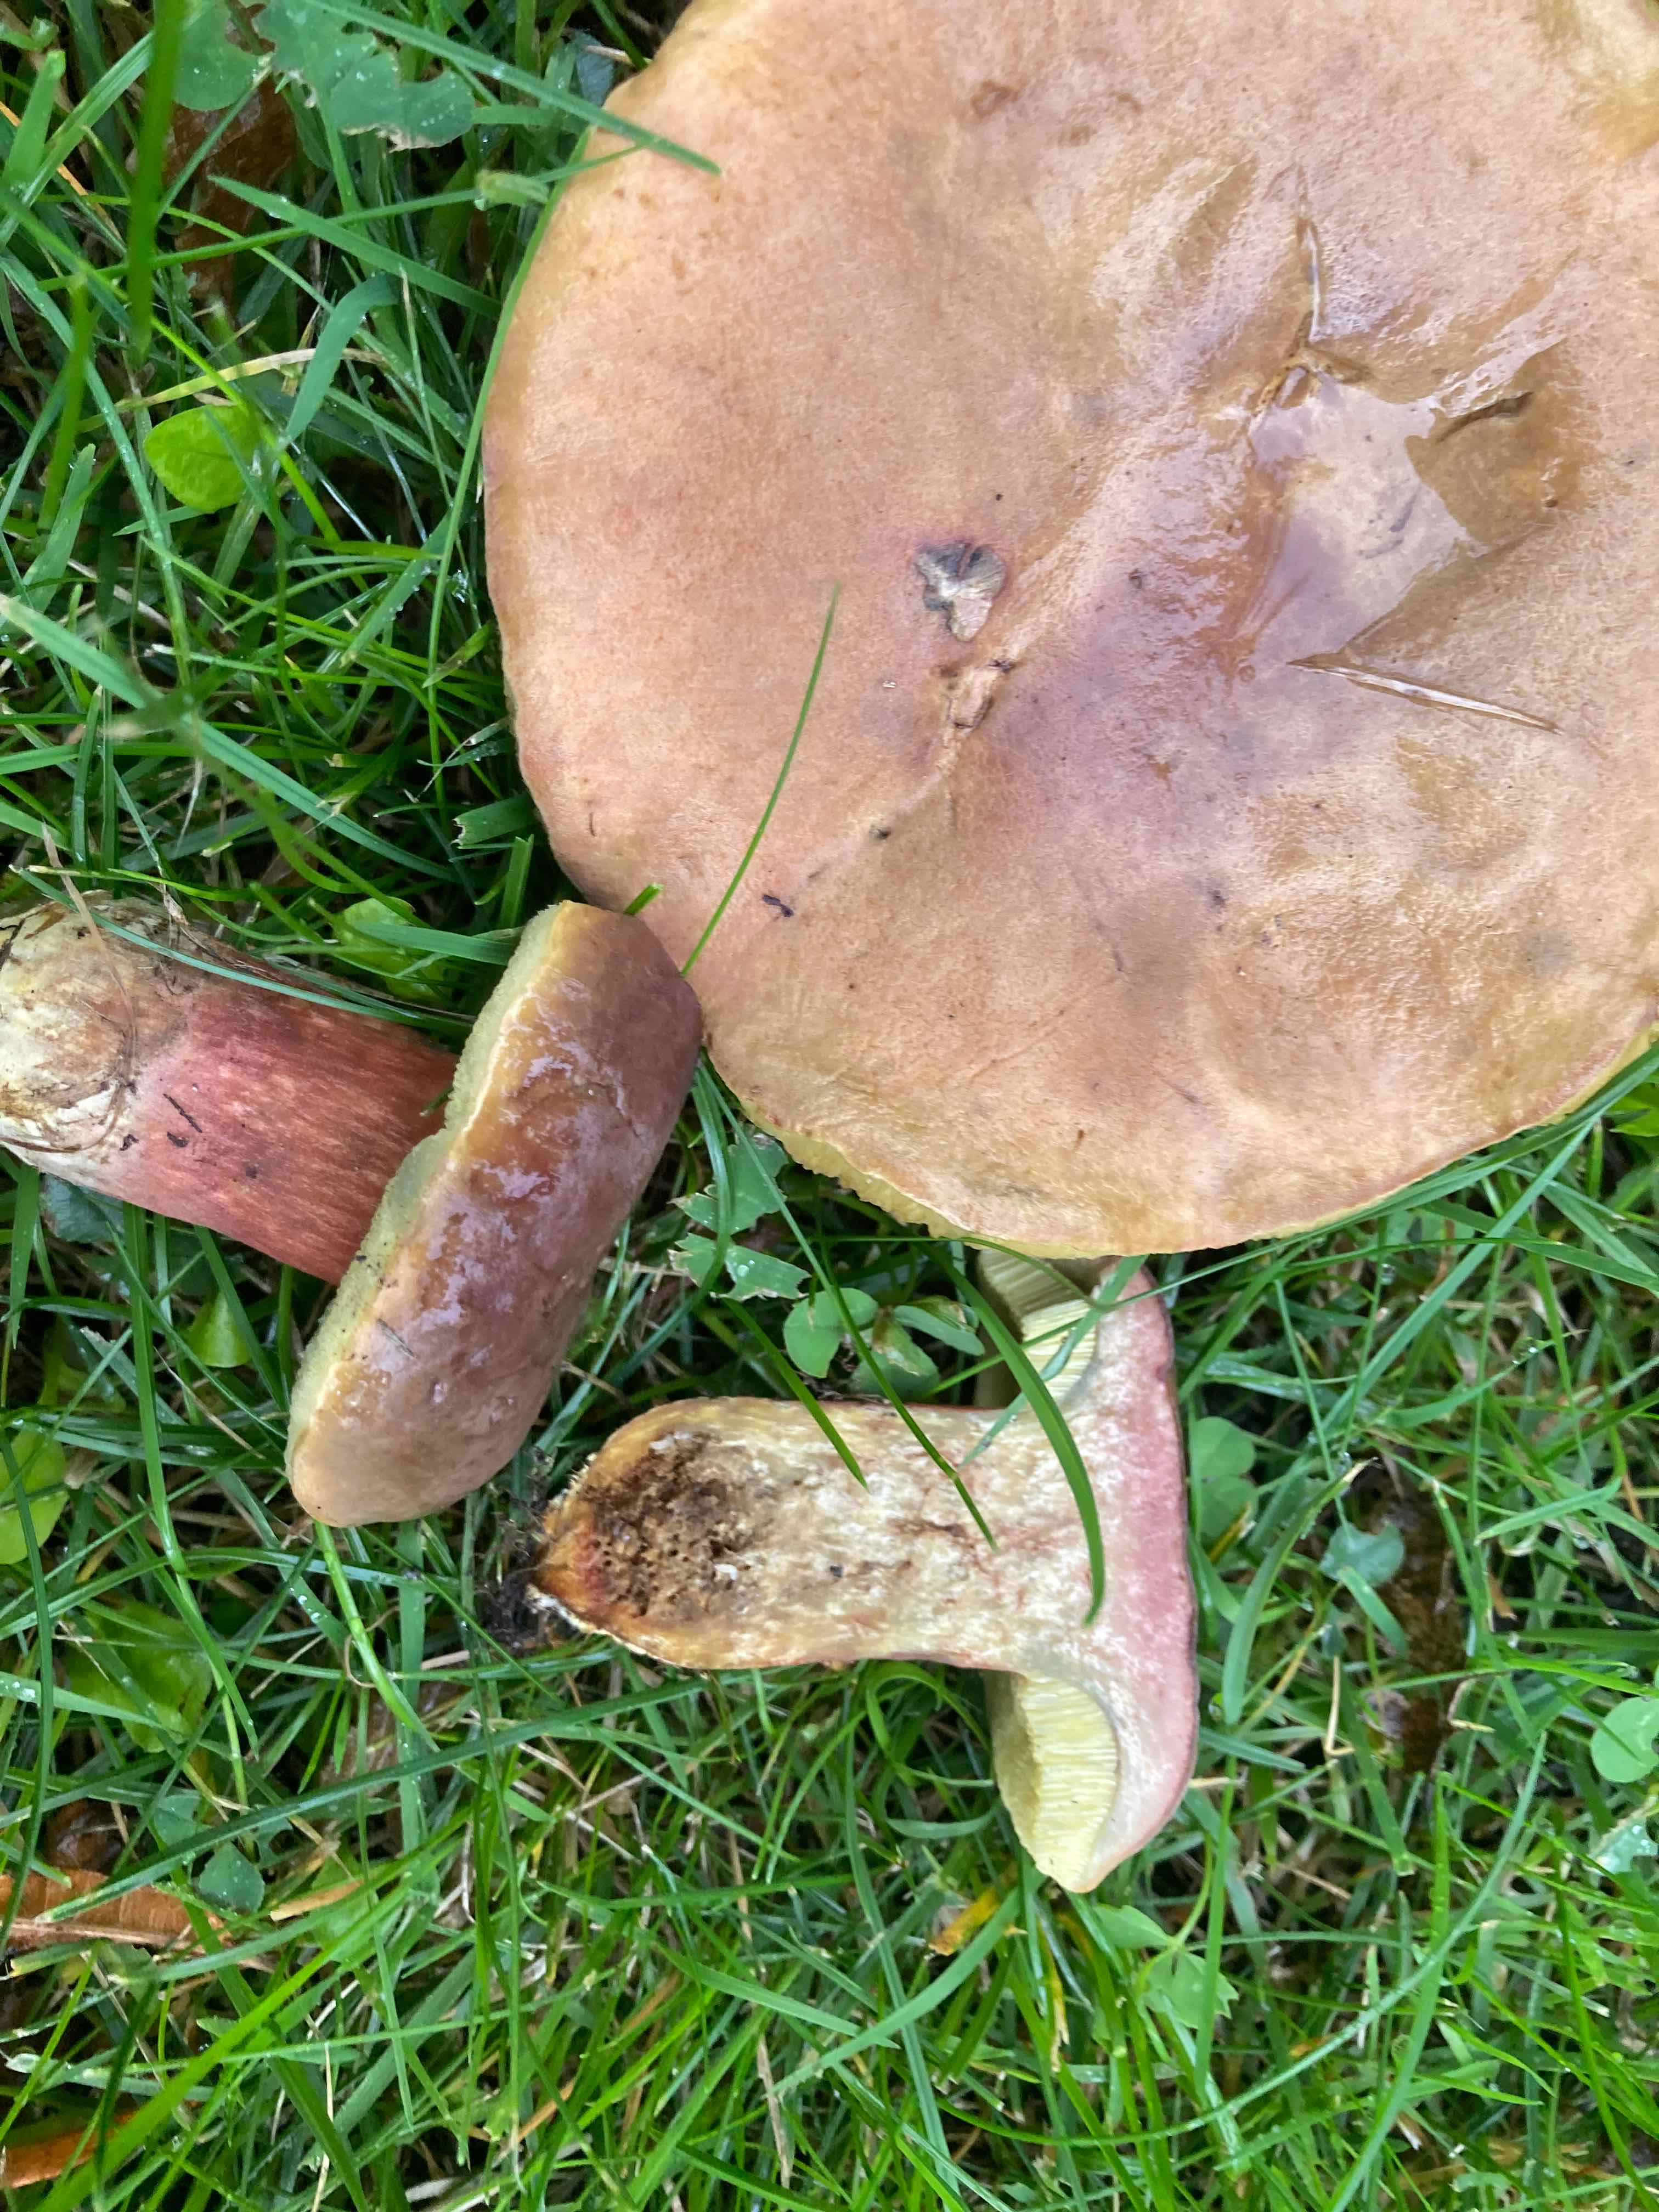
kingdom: Fungi
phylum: Basidiomycota
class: Agaricomycetes
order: Boletales
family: Boletaceae
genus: Hortiboletus
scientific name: Hortiboletus bubalinus
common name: aurora-rørhat
